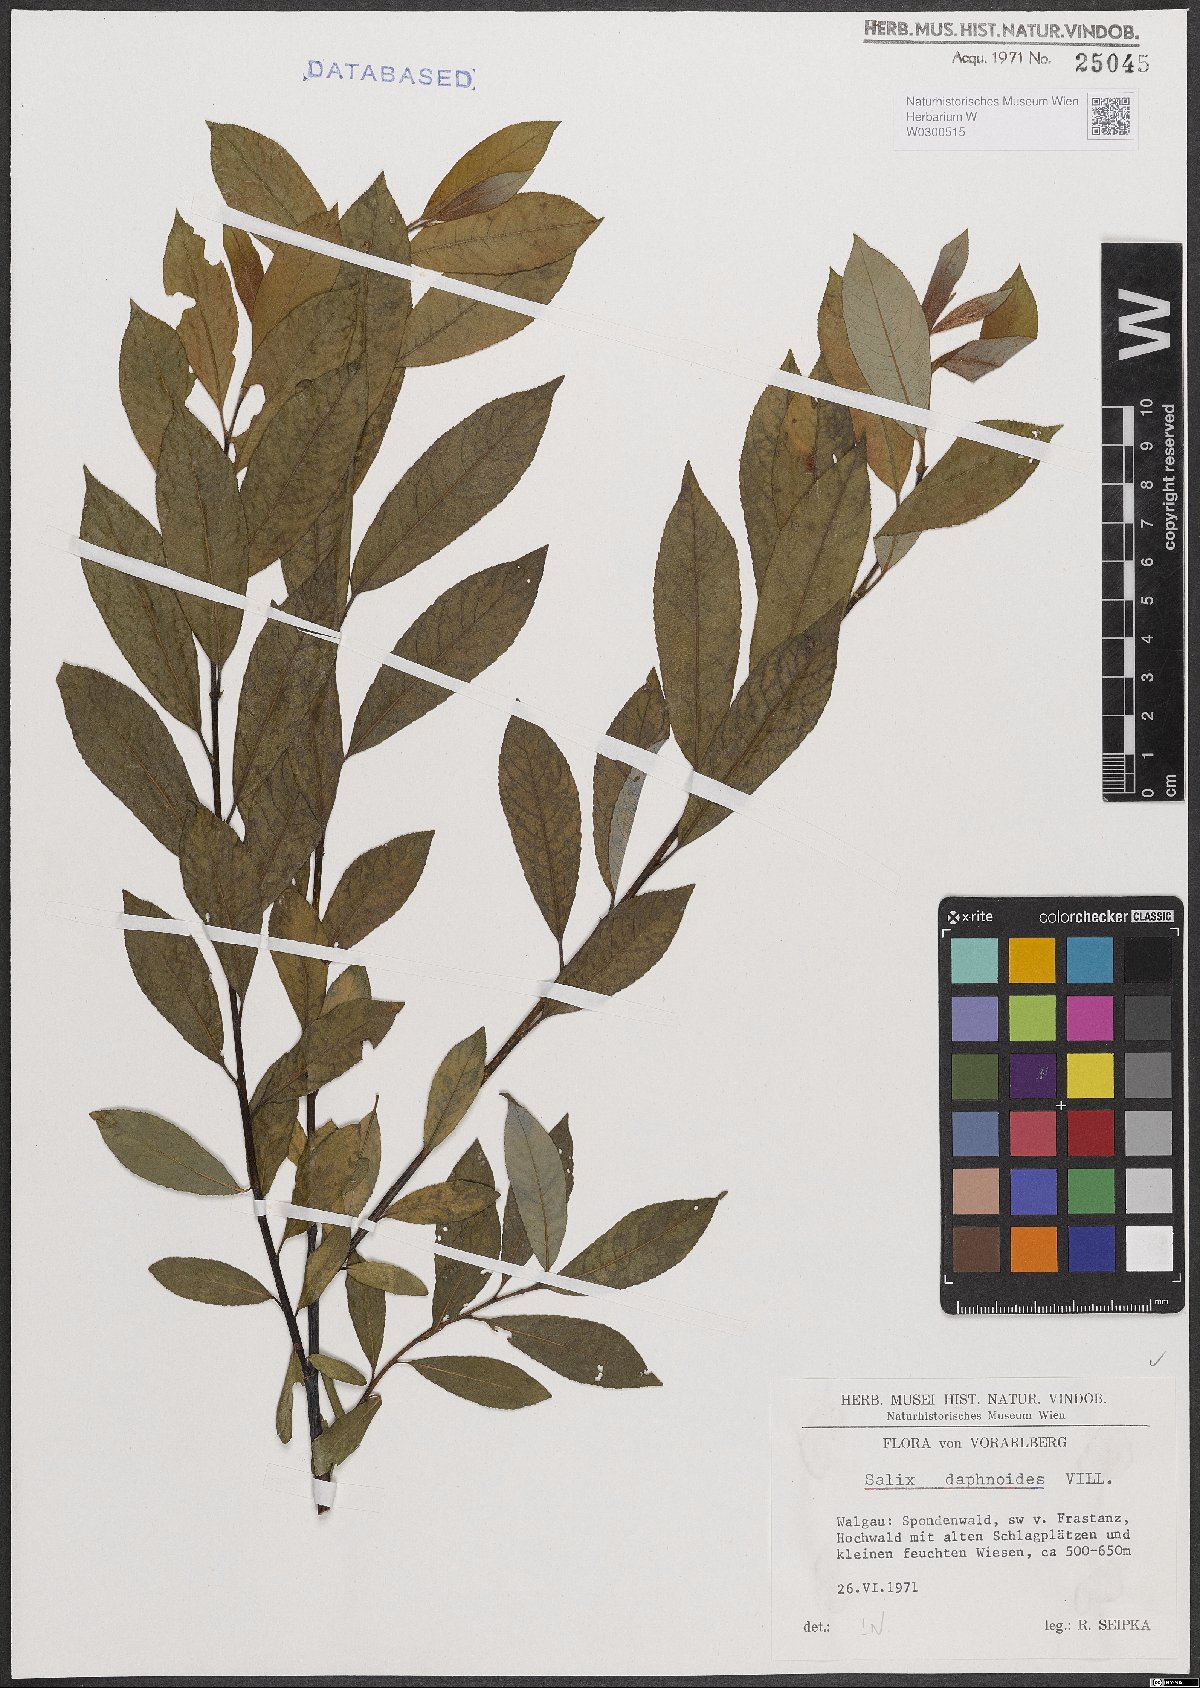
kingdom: Plantae
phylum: Tracheophyta
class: Magnoliopsida
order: Malpighiales
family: Salicaceae
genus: Salix
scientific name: Salix daphnoides
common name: European violet-willow
